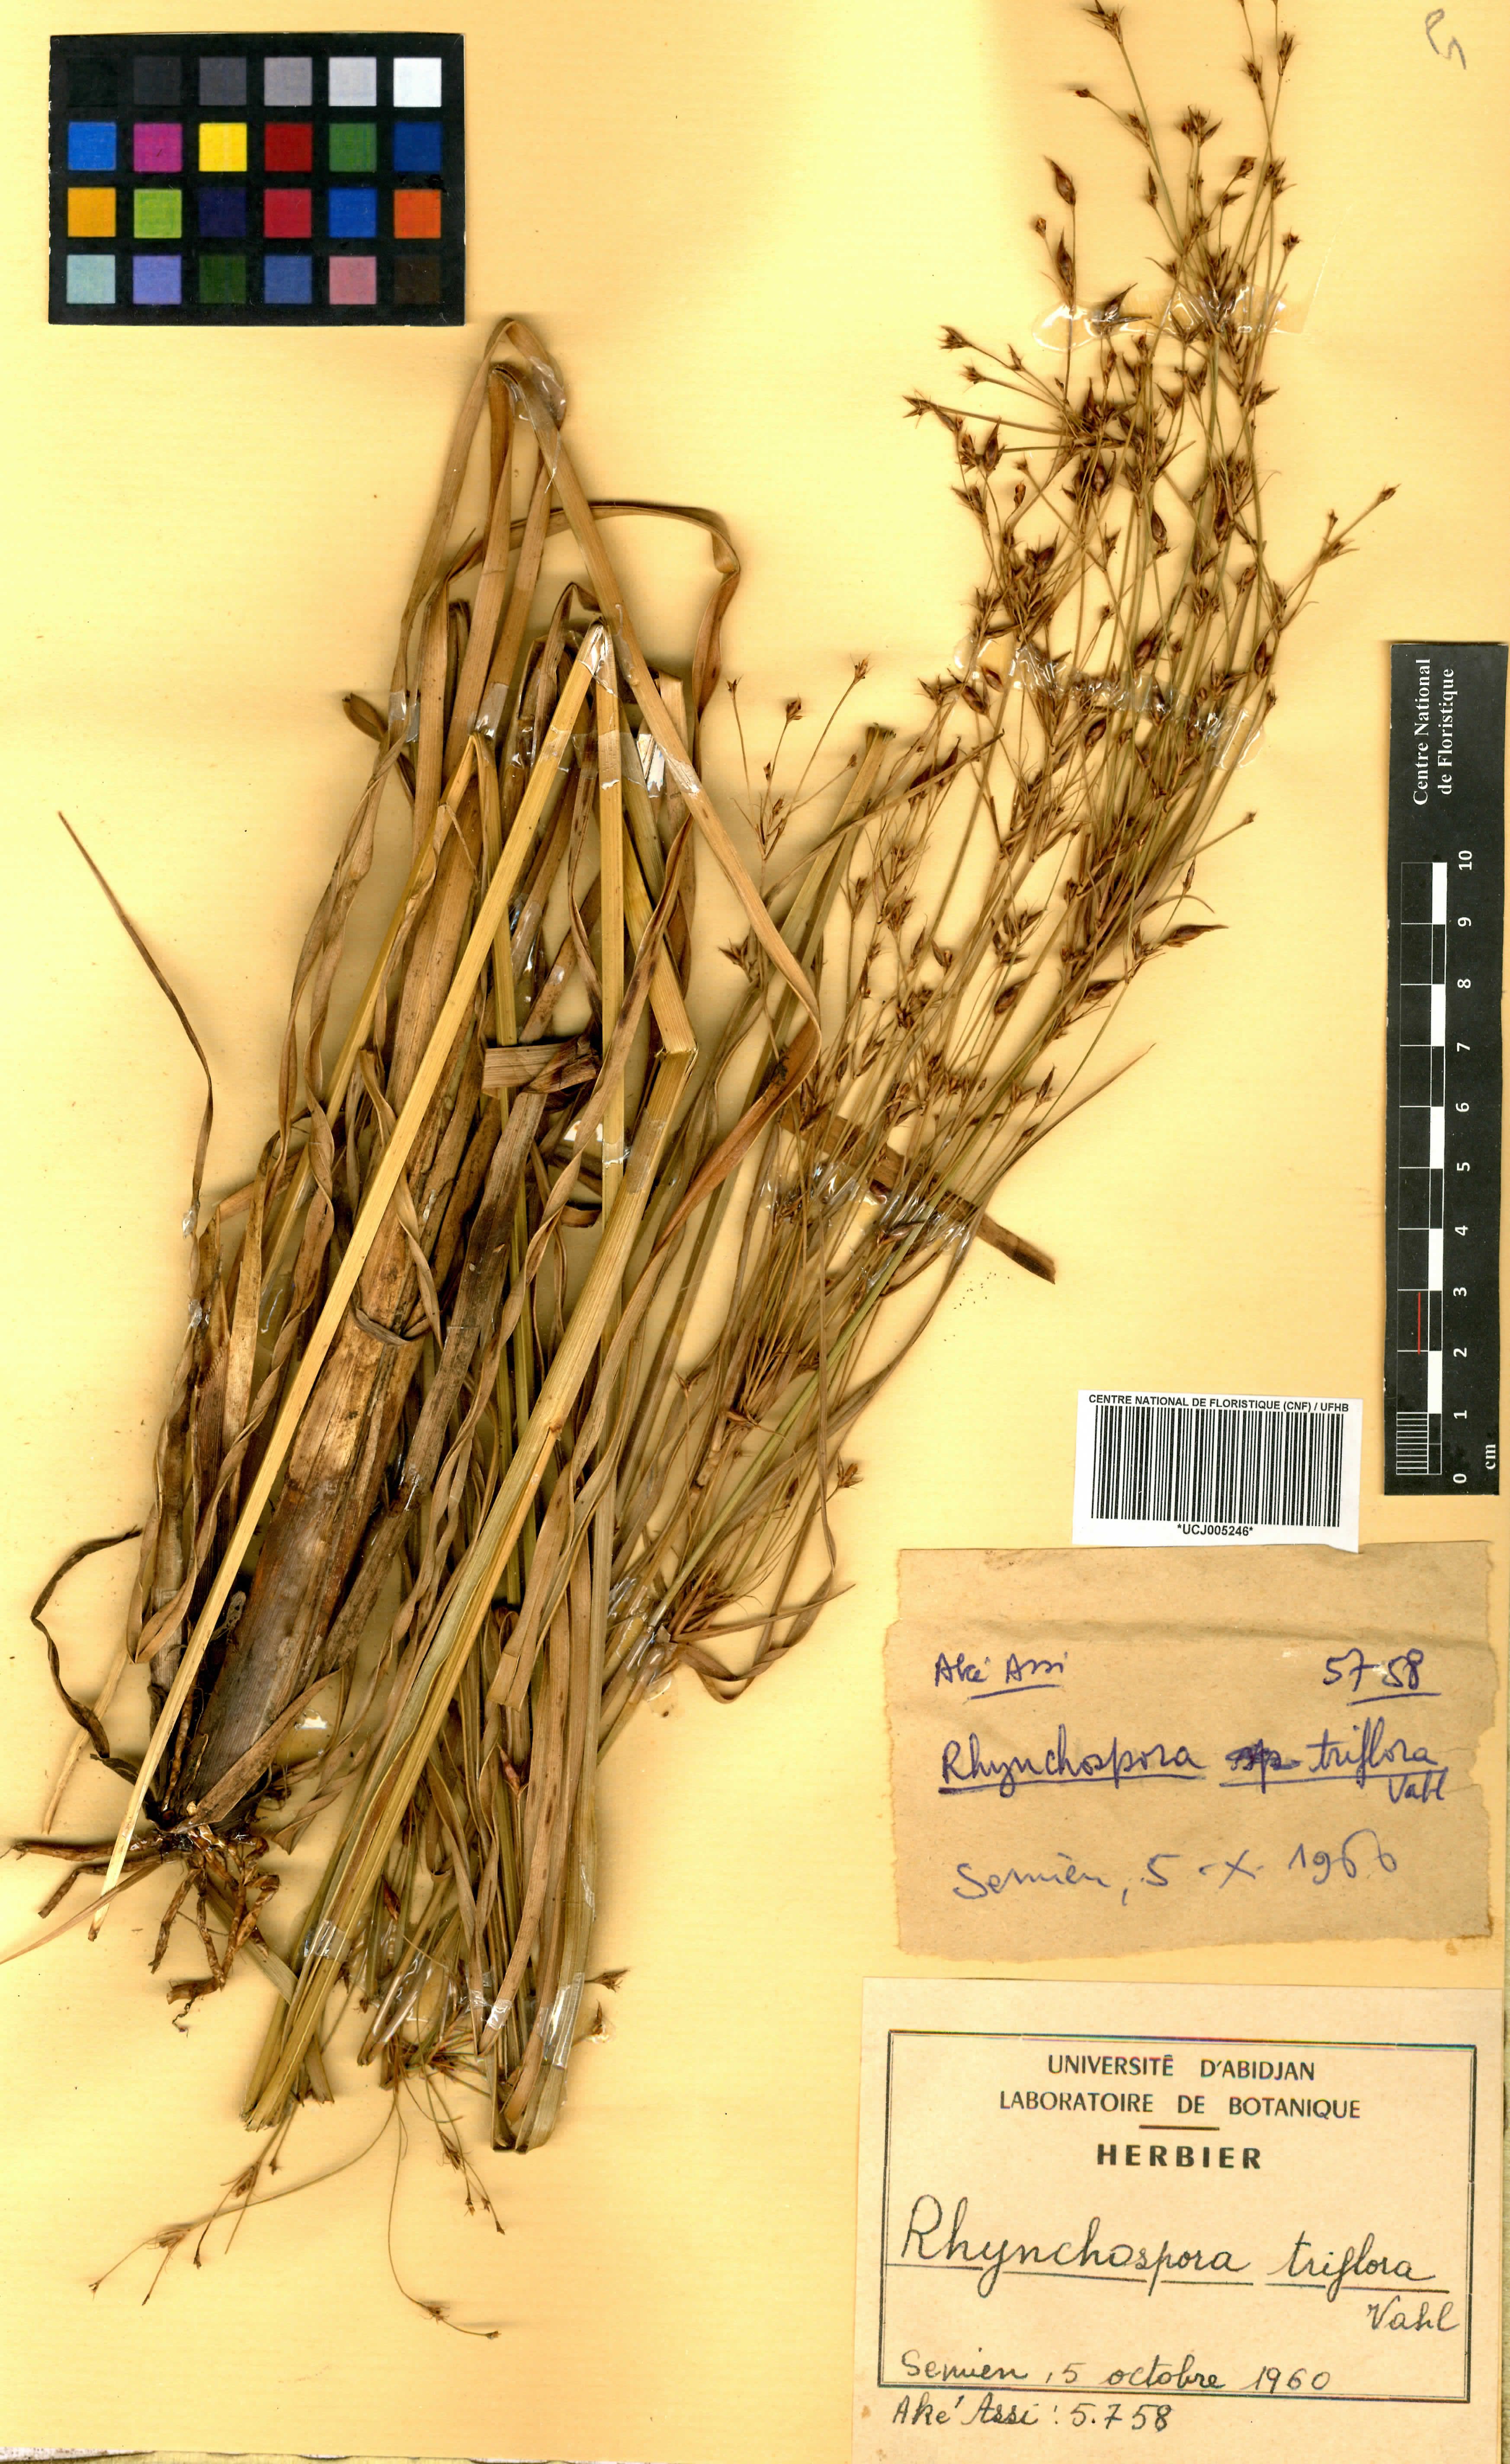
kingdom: Plantae
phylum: Tracheophyta
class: Liliopsida
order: Poales
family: Cyperaceae
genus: Rhynchospora
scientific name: Rhynchospora triflora
